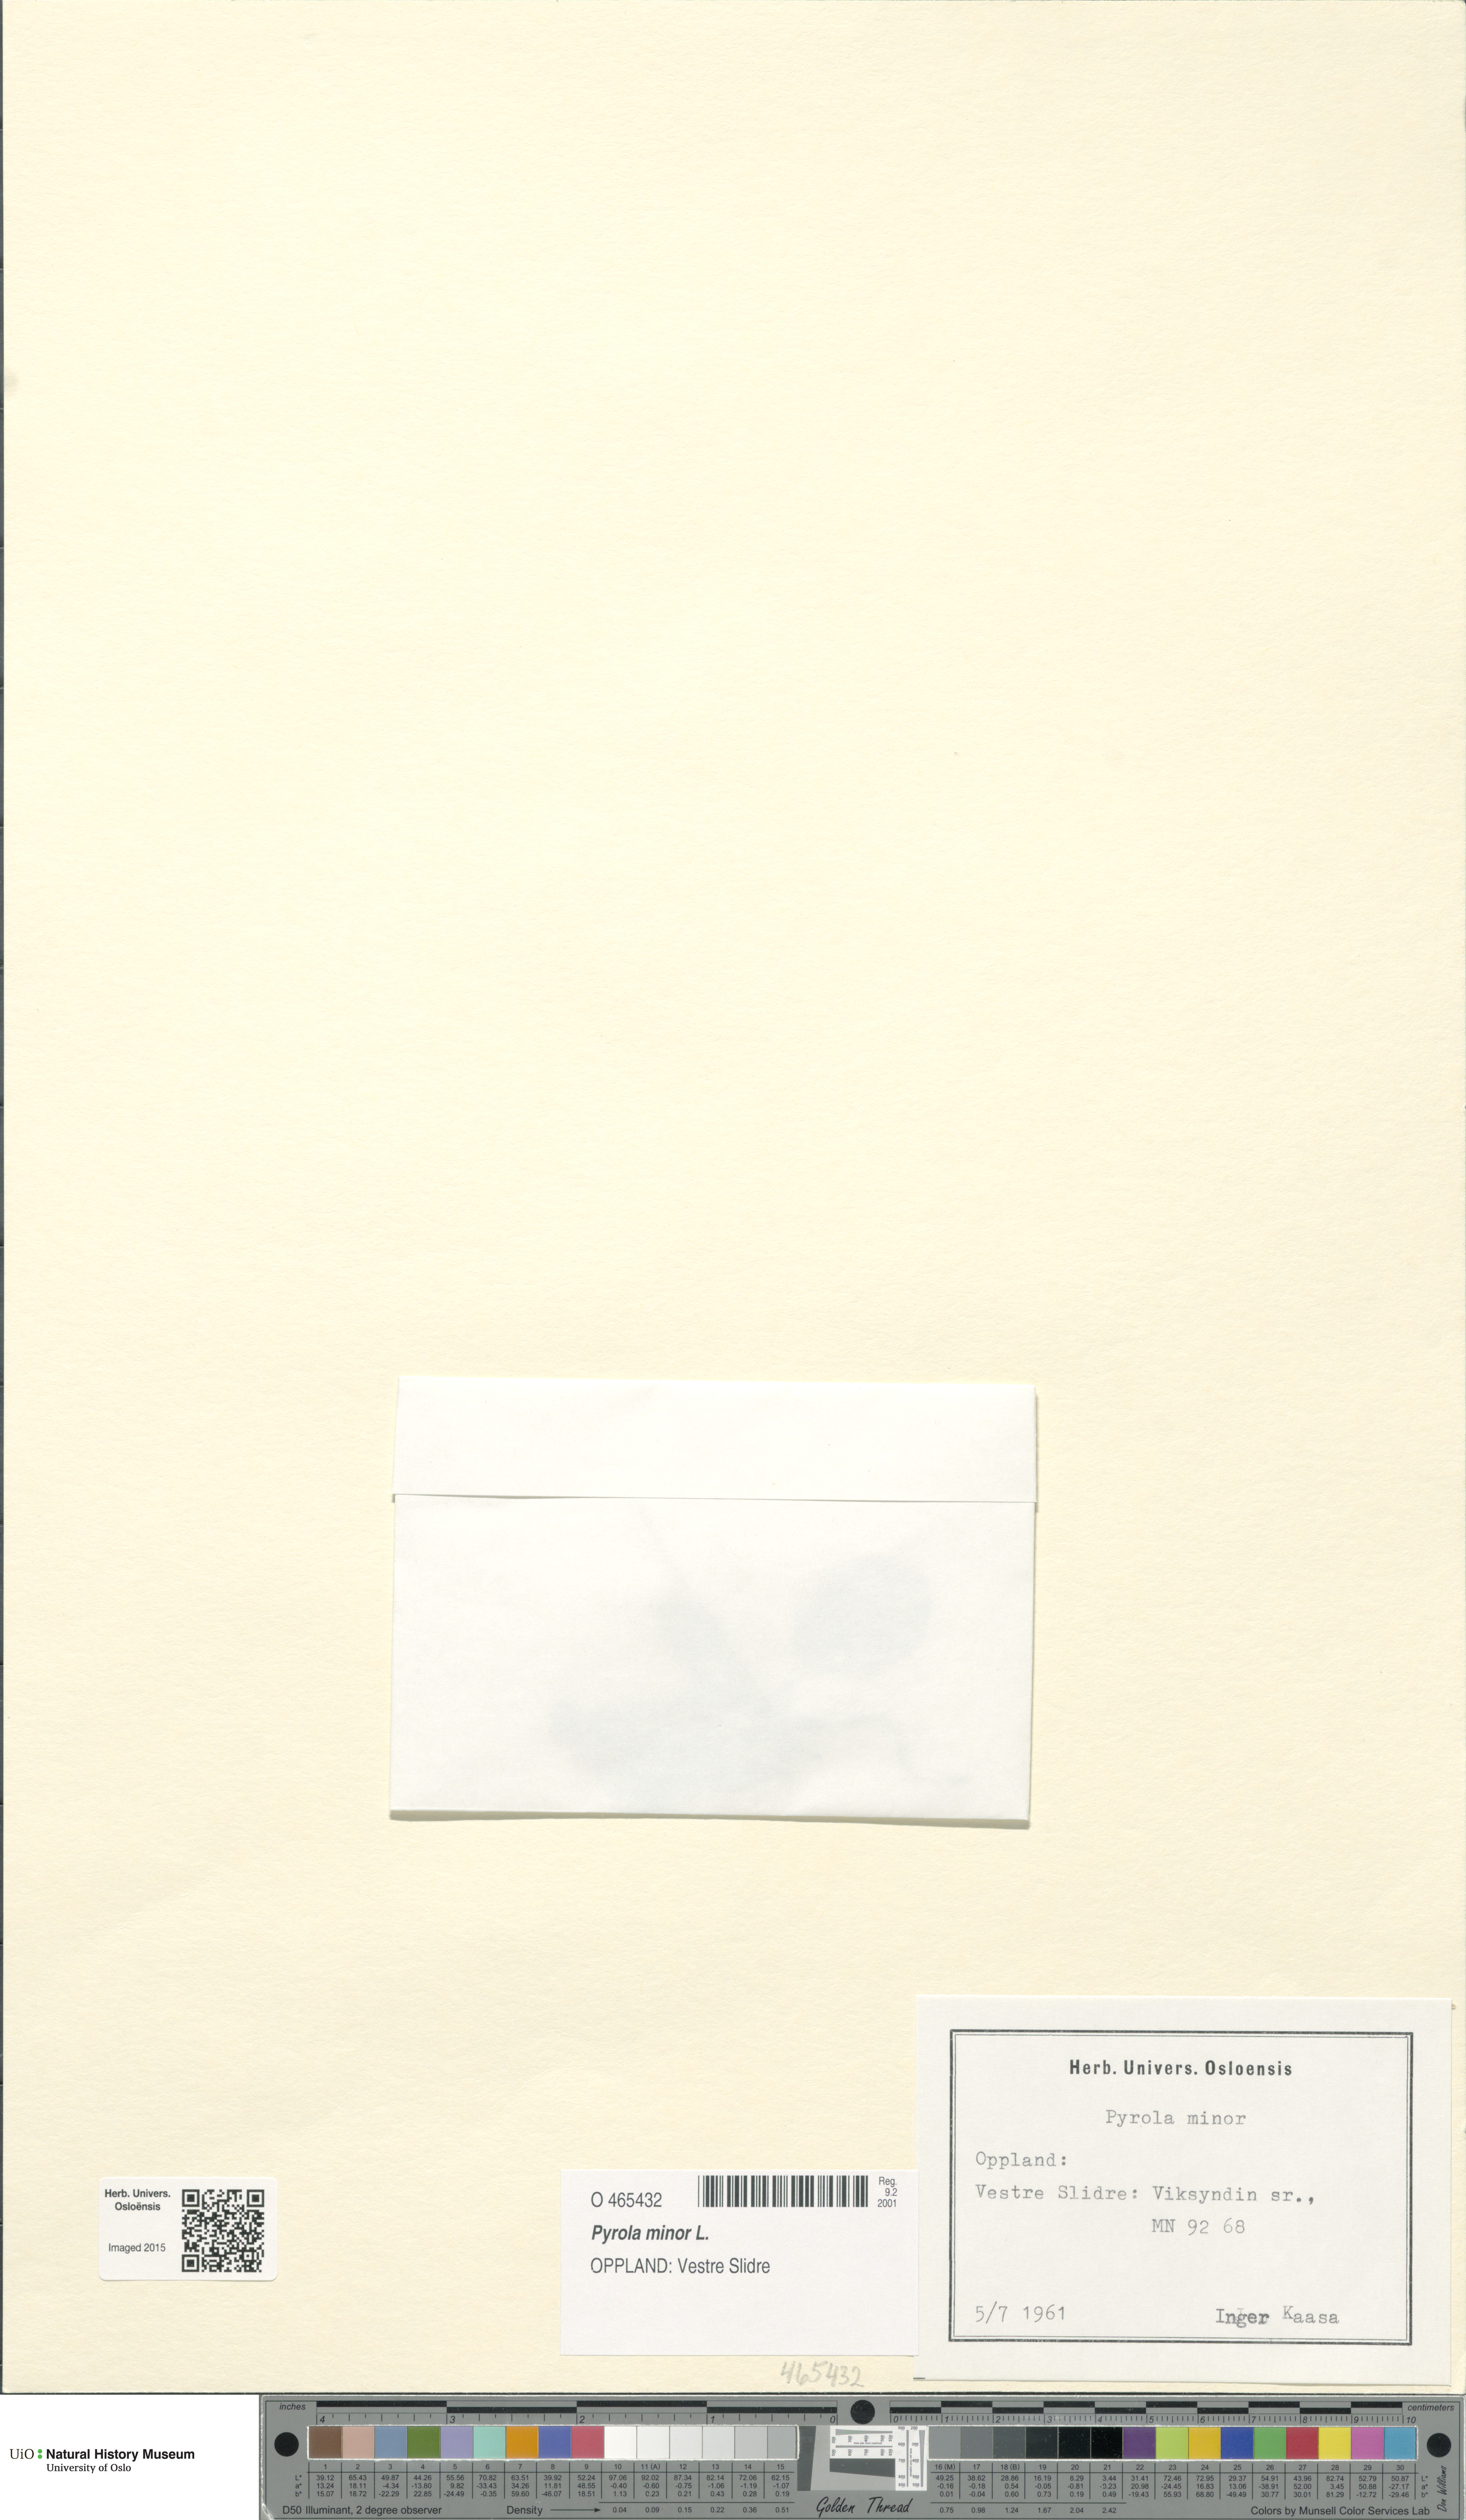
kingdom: Plantae
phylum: Tracheophyta
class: Magnoliopsida
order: Ericales
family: Ericaceae
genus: Pyrola
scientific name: Pyrola minor
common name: Common wintergreen
